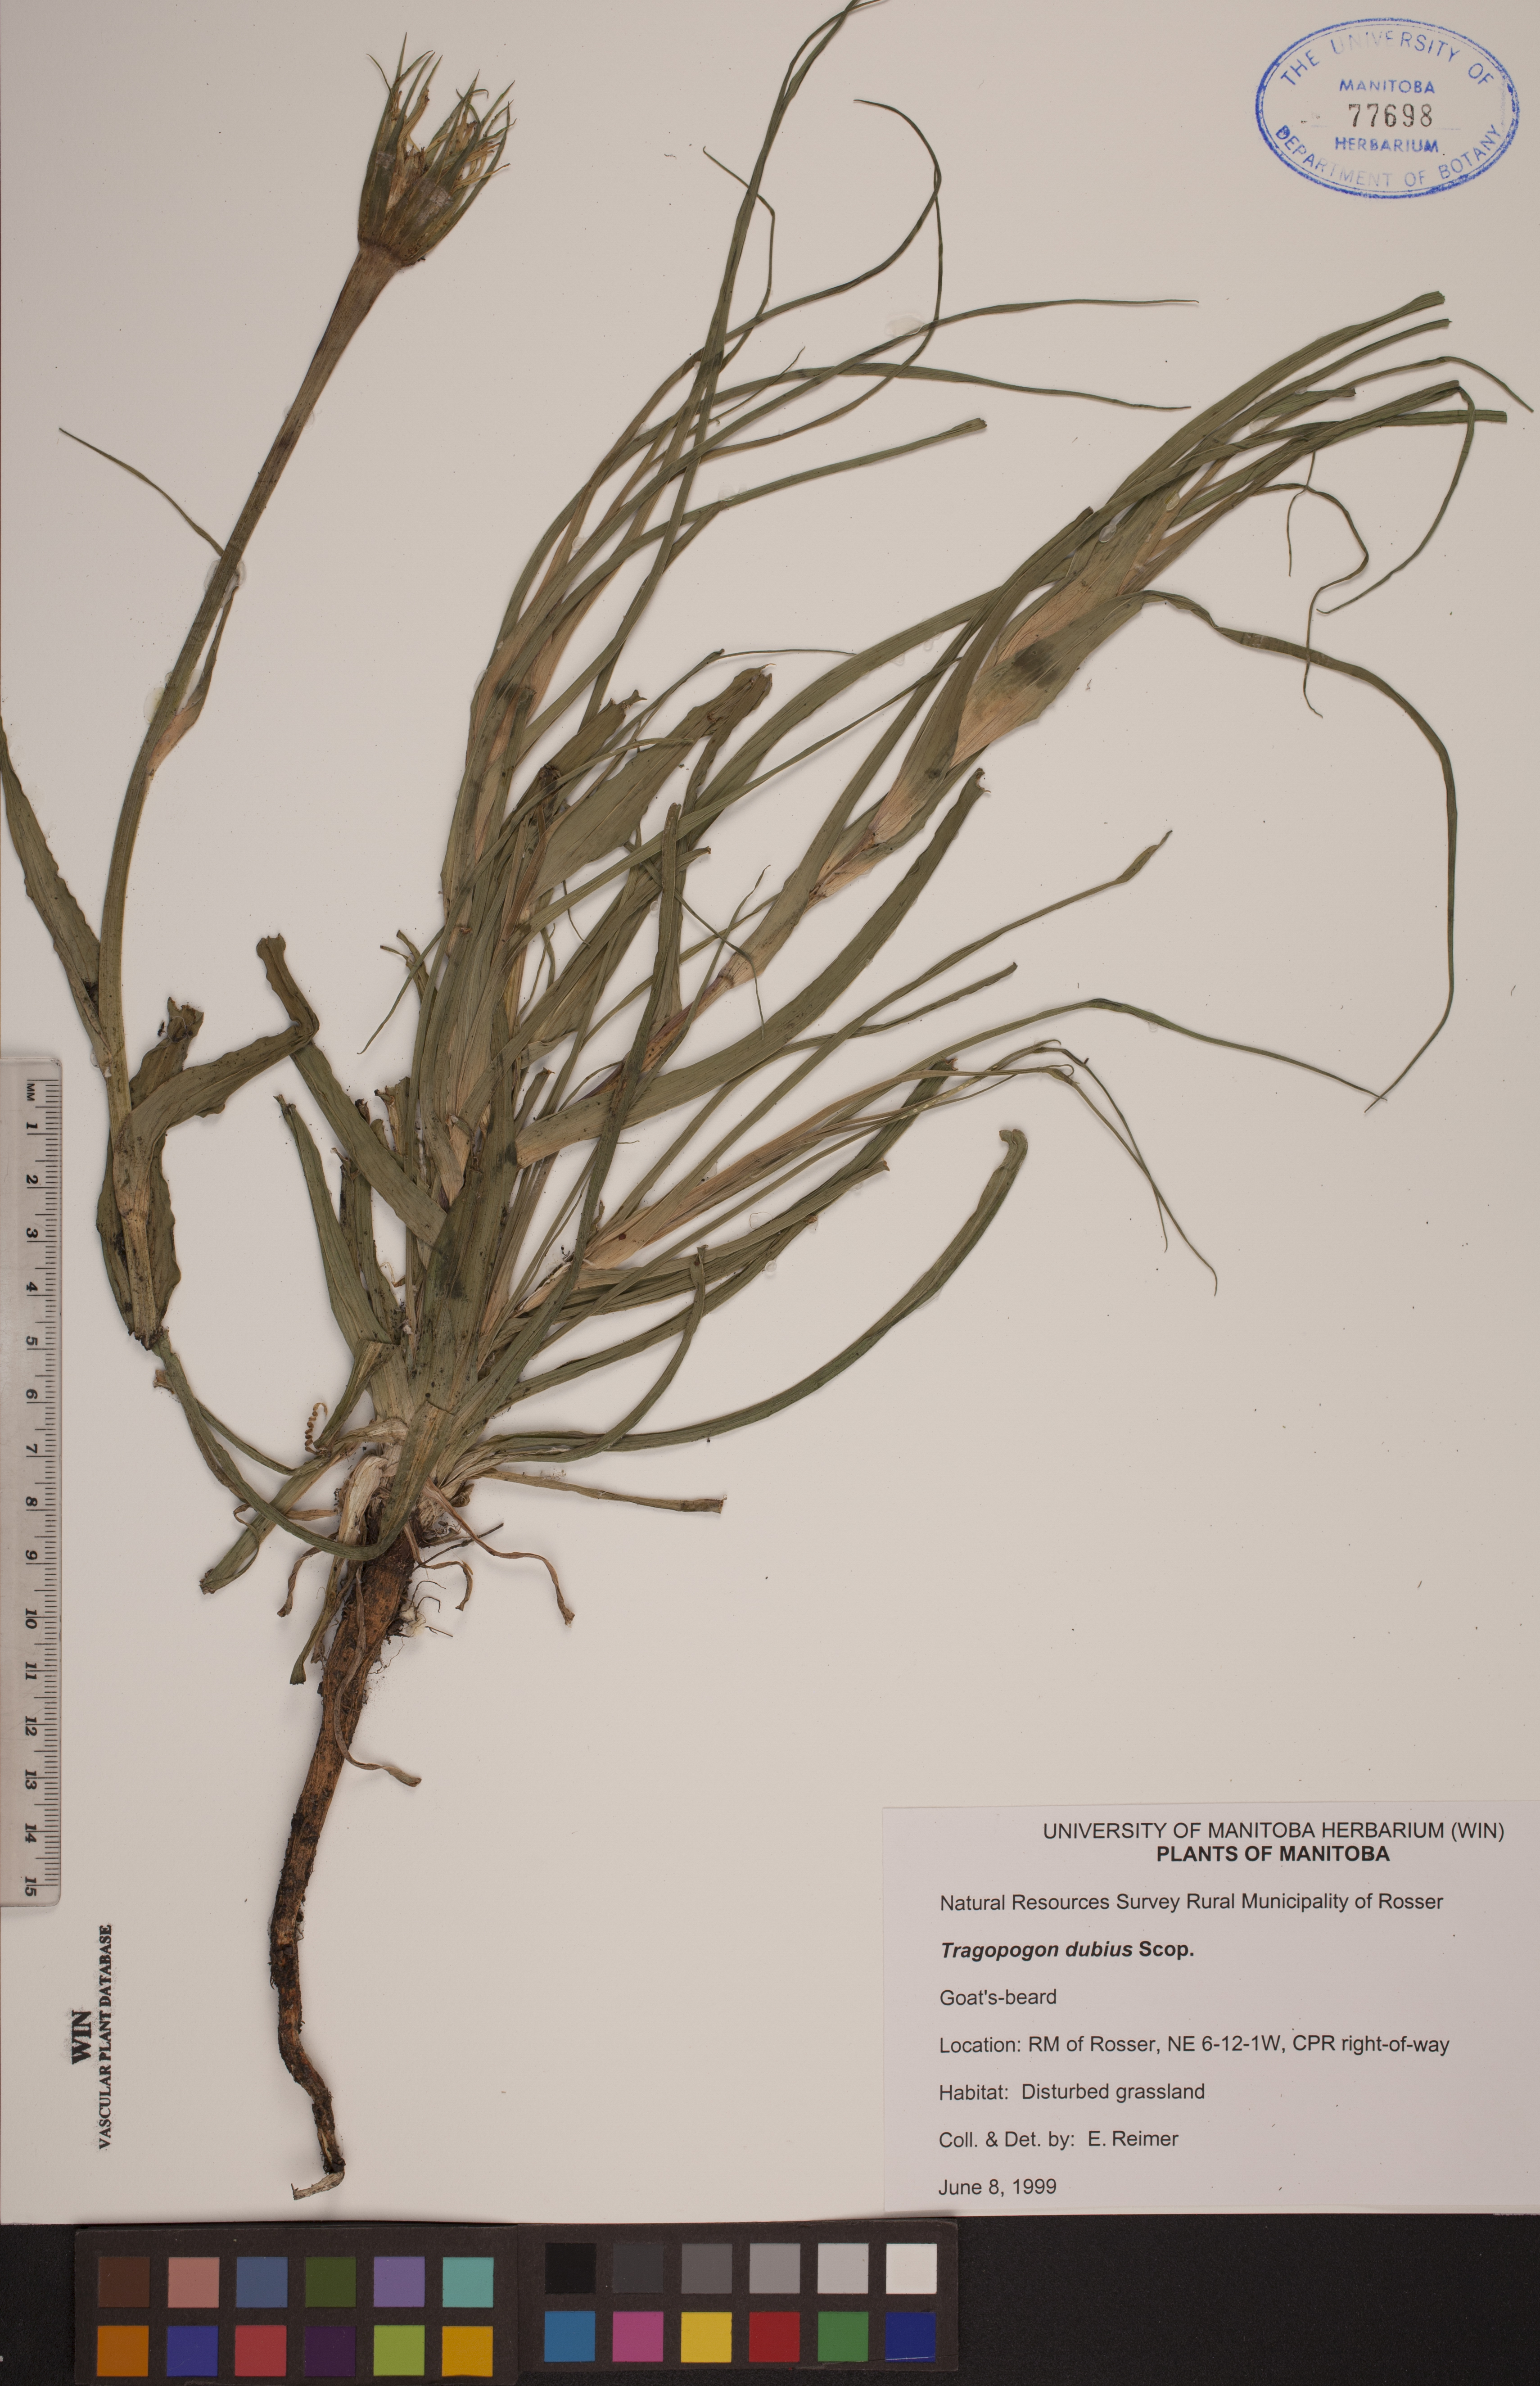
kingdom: Plantae
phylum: Tracheophyta
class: Magnoliopsida
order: Asterales
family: Asteraceae
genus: Tragopogon
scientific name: Tragopogon dubius
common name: Yellow salsify
